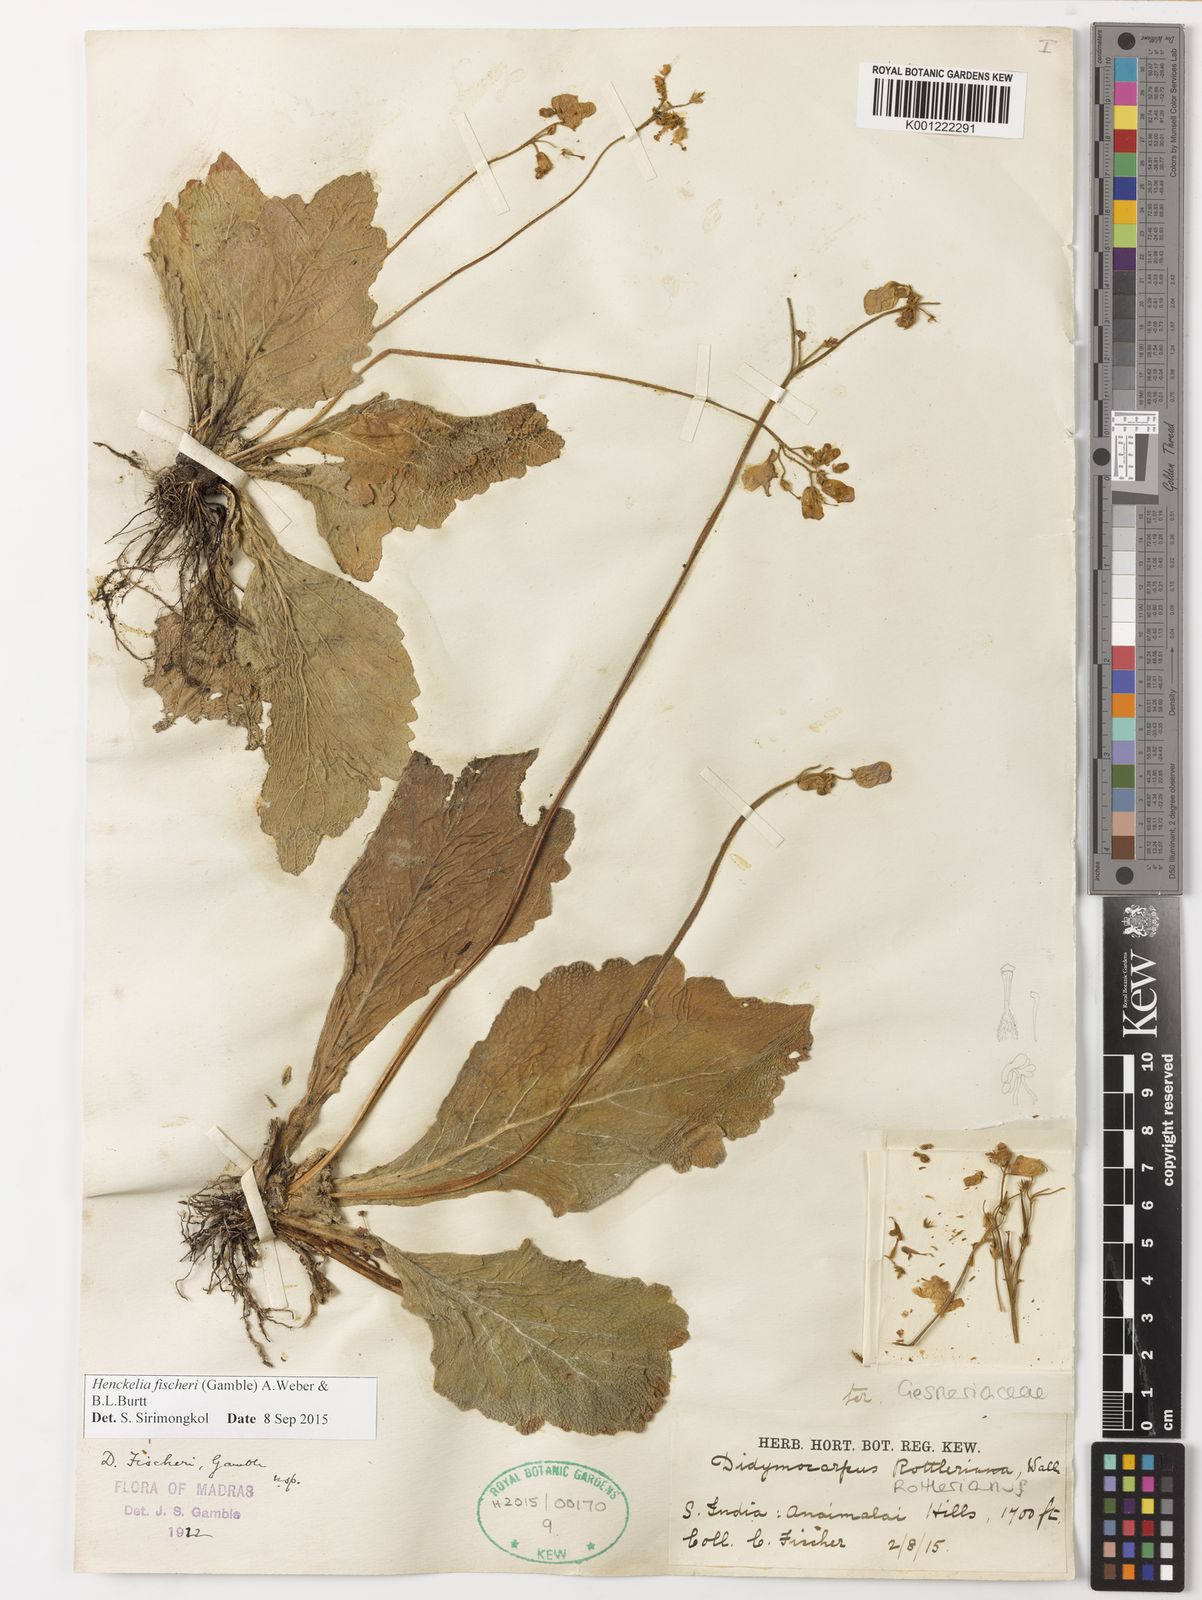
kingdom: Plantae
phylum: Tracheophyta
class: Magnoliopsida
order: Lamiales
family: Gesneriaceae
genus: Henckelia
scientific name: Henckelia fischeri
